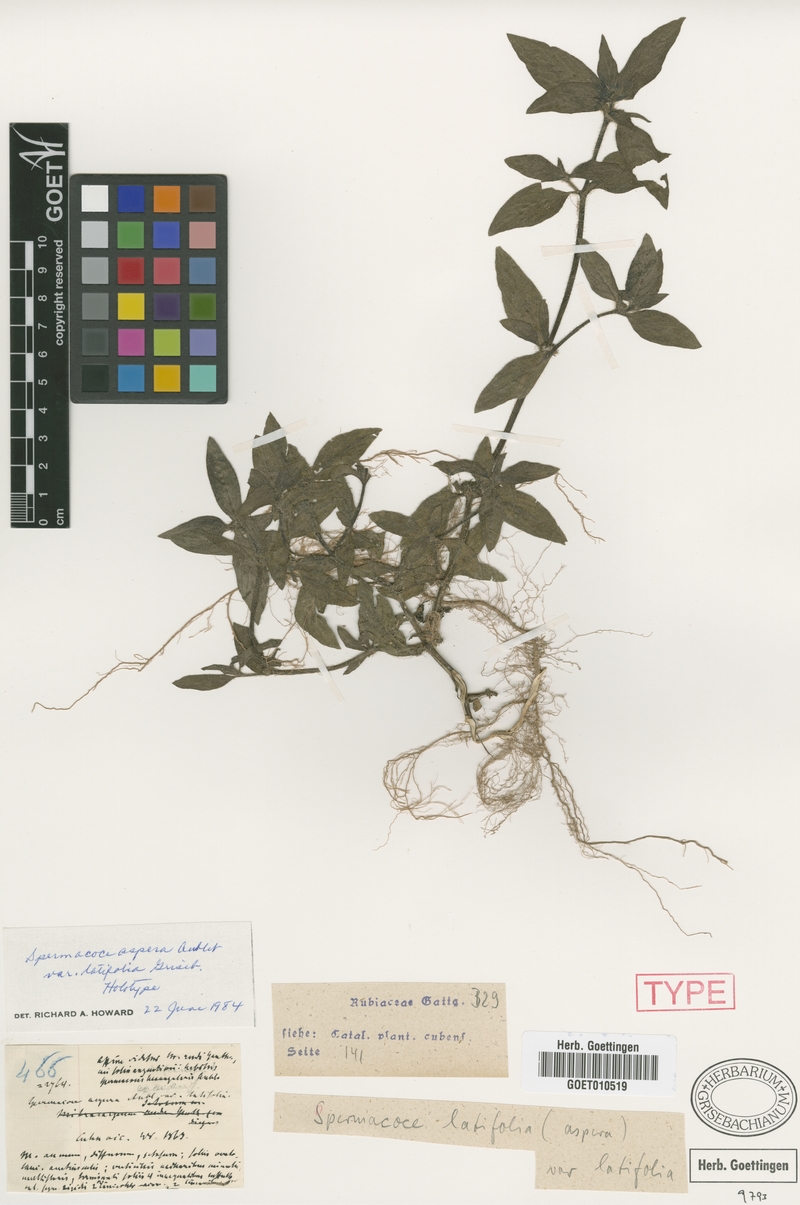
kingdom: Plantae
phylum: Tracheophyta
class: Magnoliopsida
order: Gentianales
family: Rubiaceae
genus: Spermacoce
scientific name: Spermacoce latifolia
